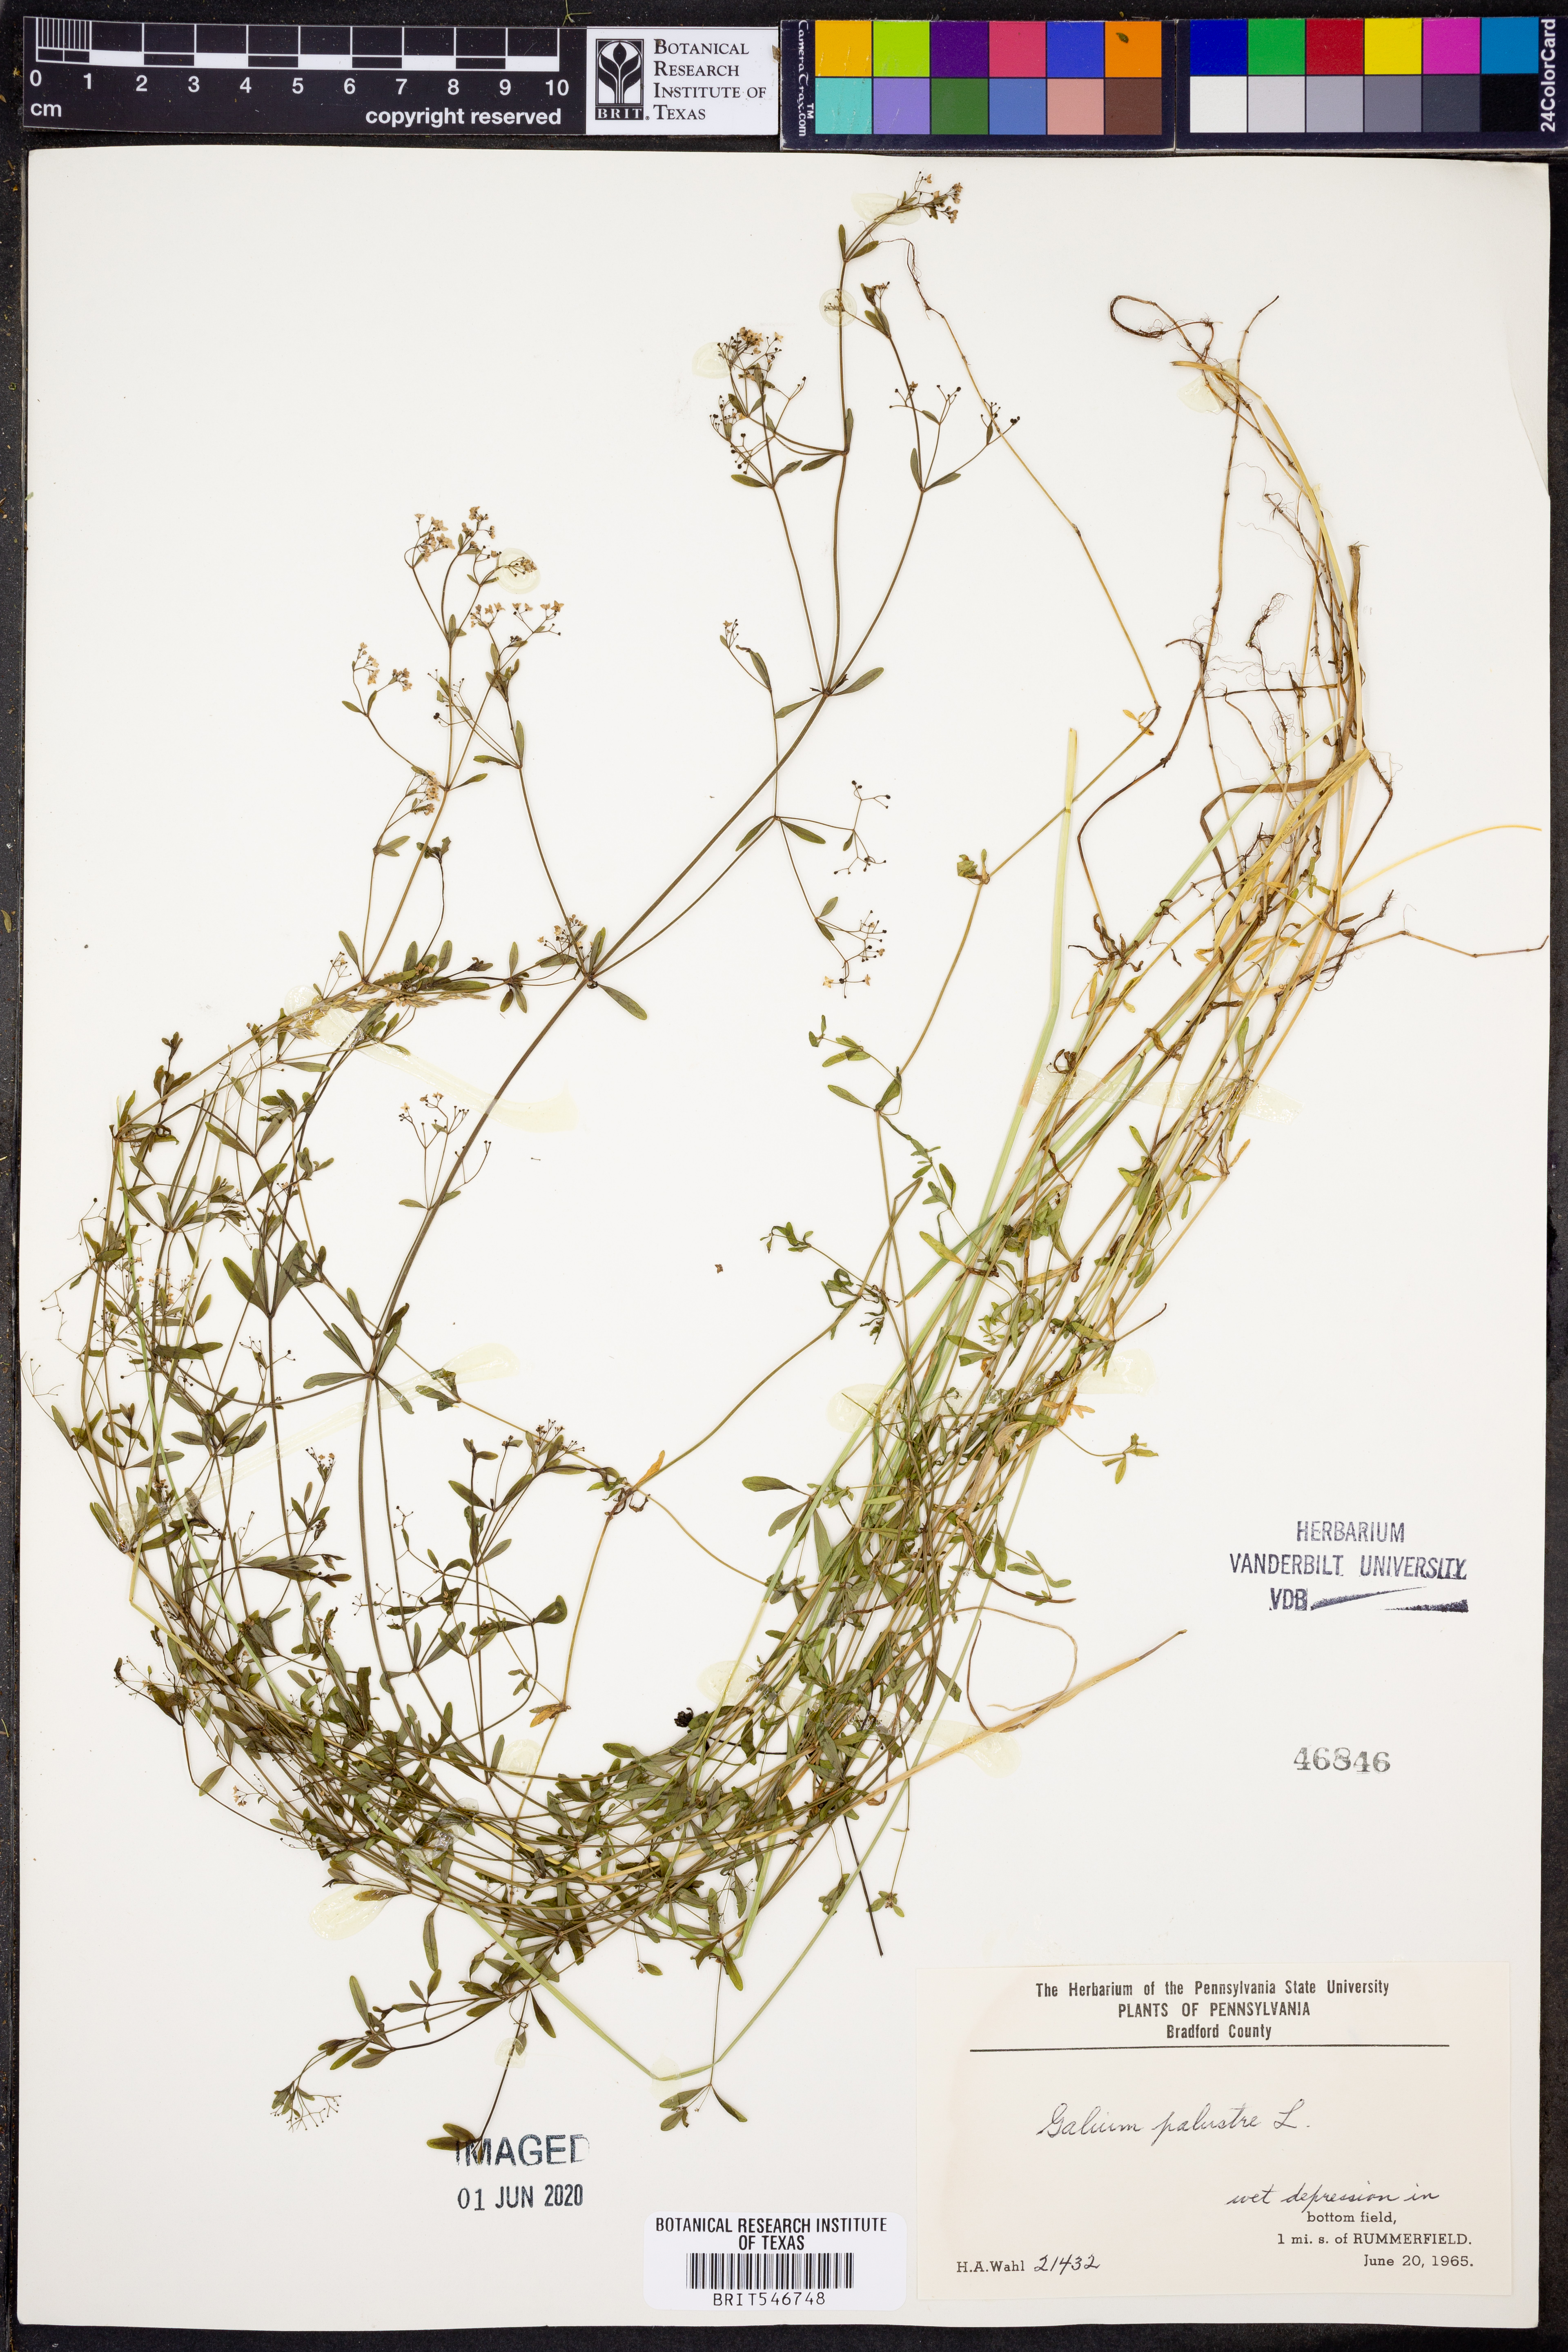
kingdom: Plantae
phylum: Tracheophyta
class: Magnoliopsida
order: Gentianales
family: Rubiaceae
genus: Galium
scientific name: Galium palustre
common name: Common marsh-bedstraw
